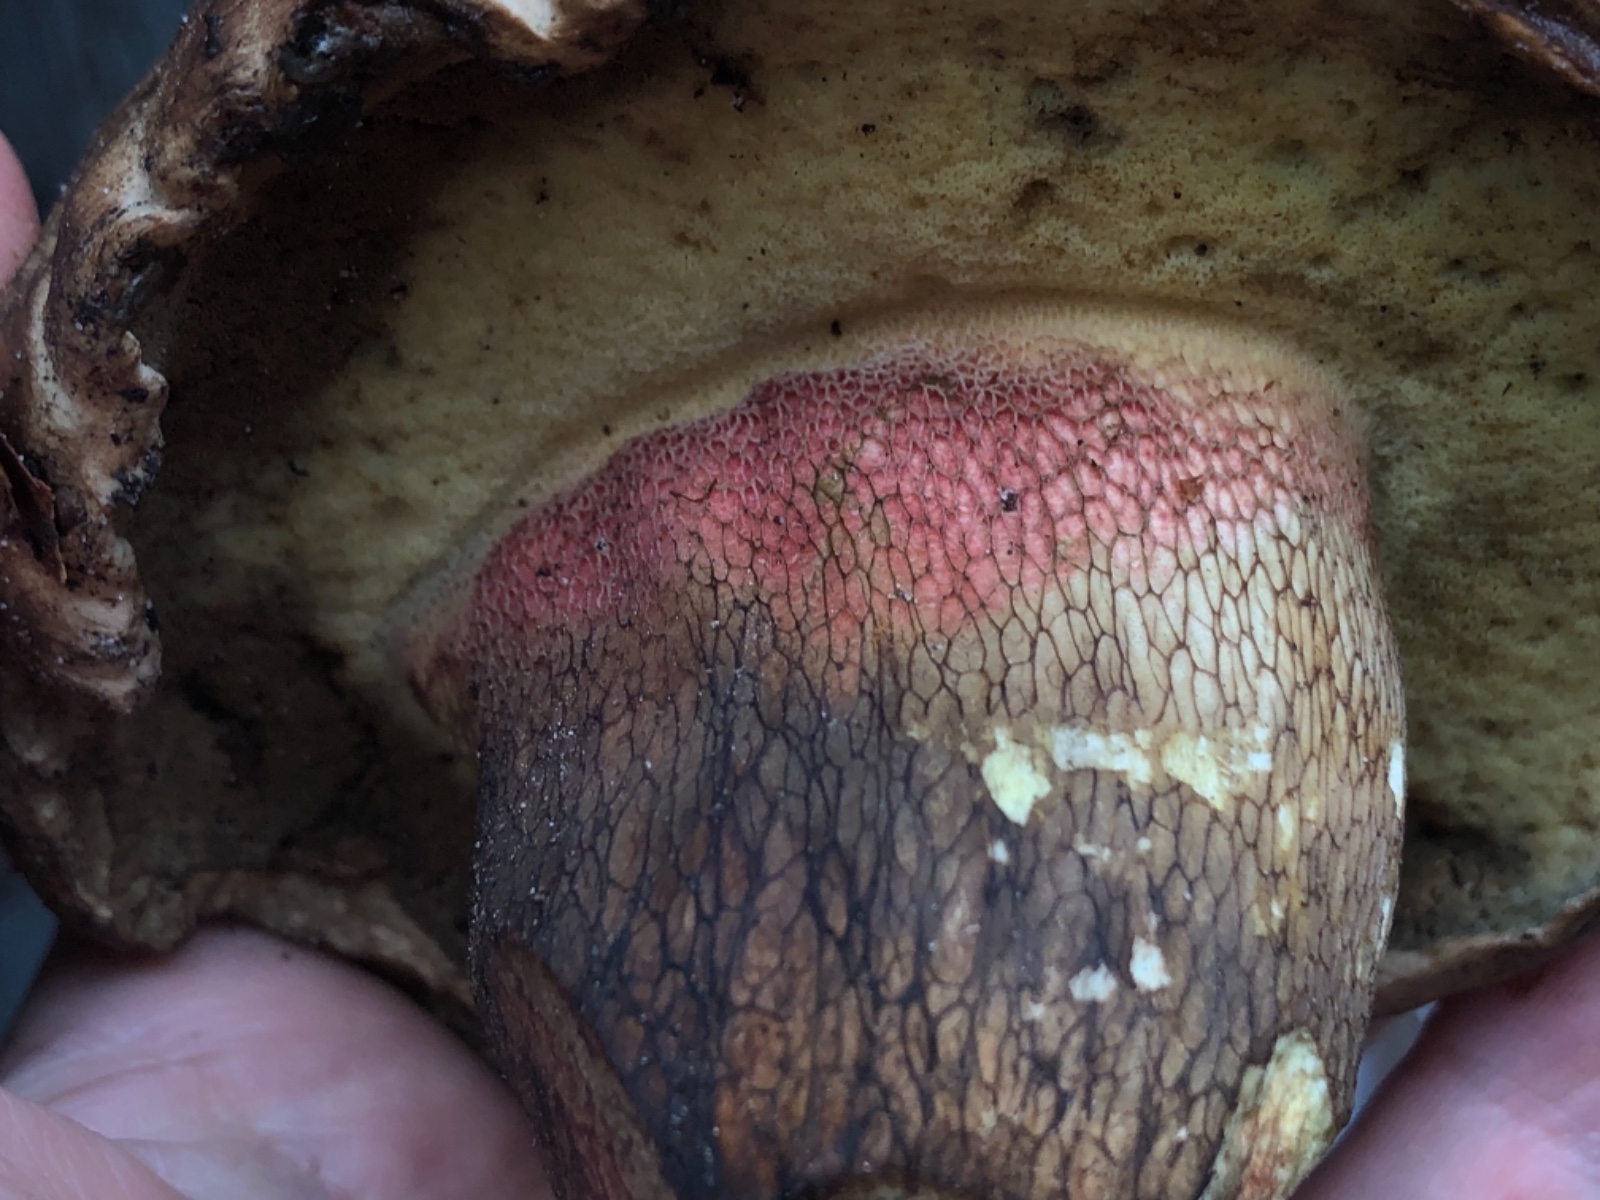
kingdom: Fungi
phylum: Basidiomycota
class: Agaricomycetes
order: Boletales
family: Boletaceae
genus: Caloboletus
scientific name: Caloboletus calopus
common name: skønfodet rørhat
